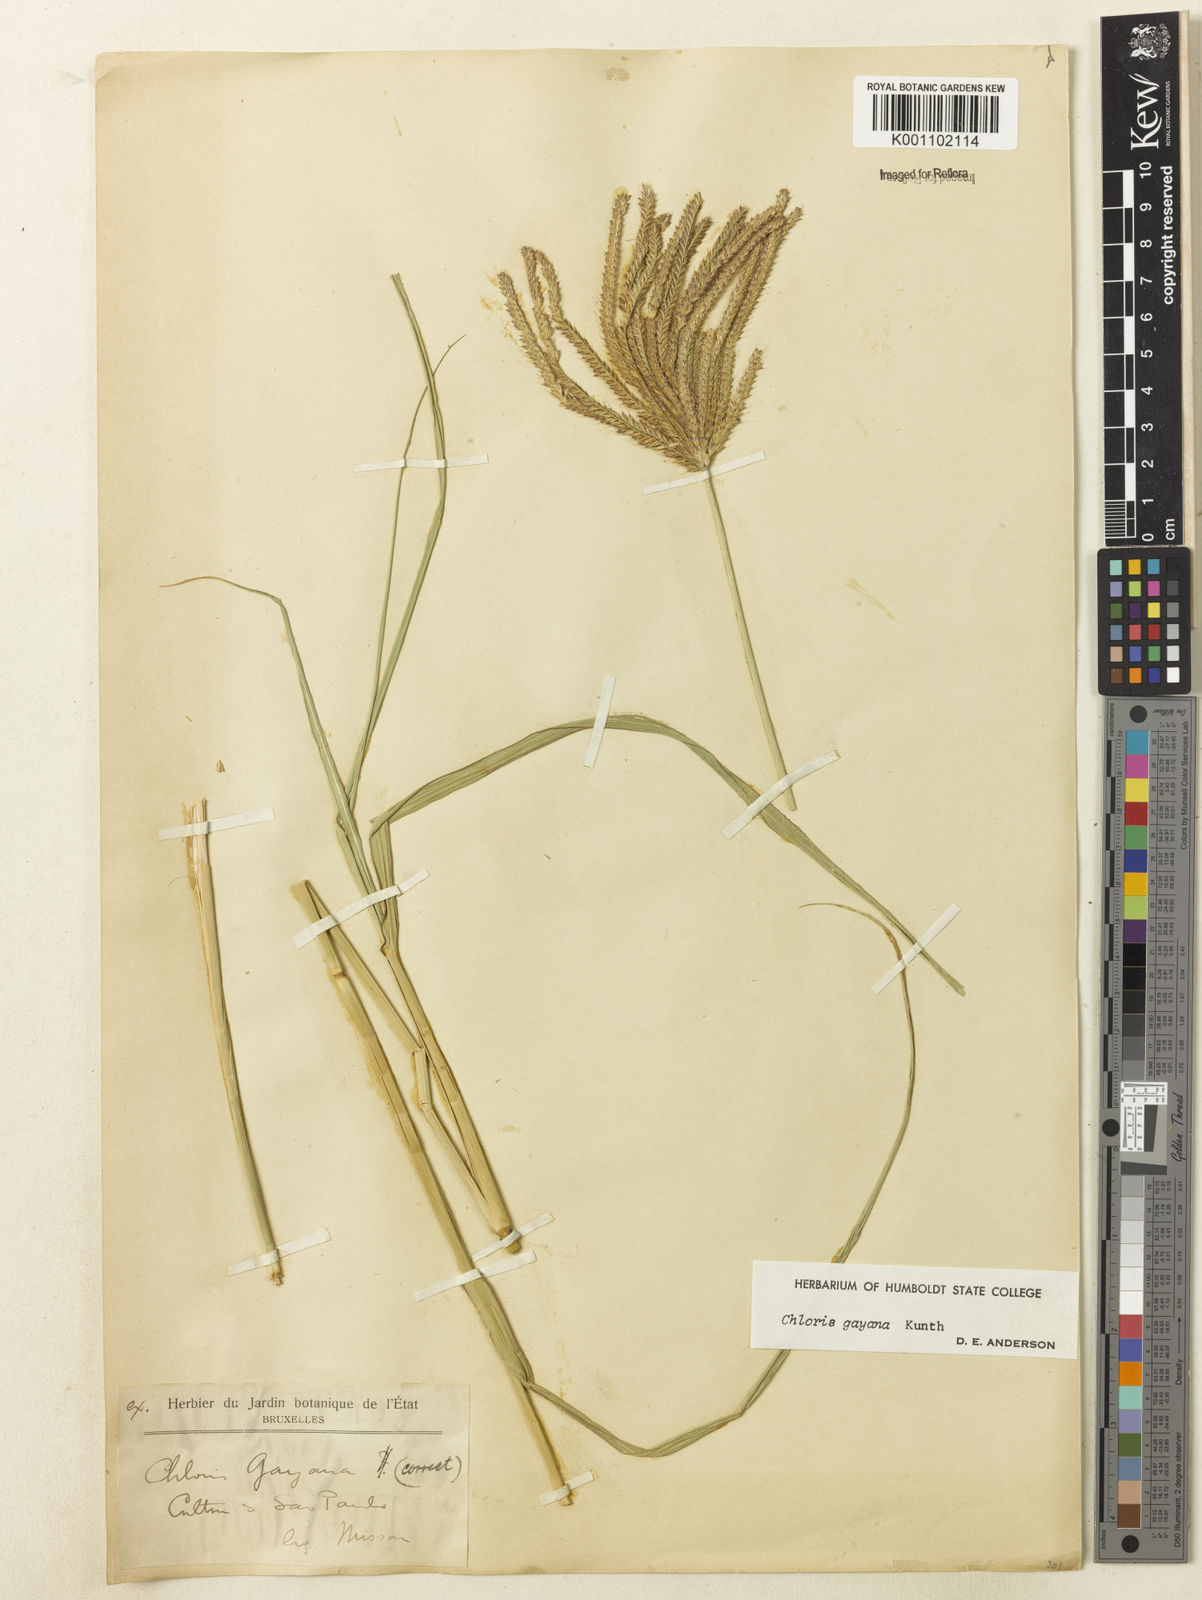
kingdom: Plantae
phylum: Tracheophyta
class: Liliopsida
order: Poales
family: Poaceae
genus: Chloris
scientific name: Chloris gayana
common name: Rhodes grass
